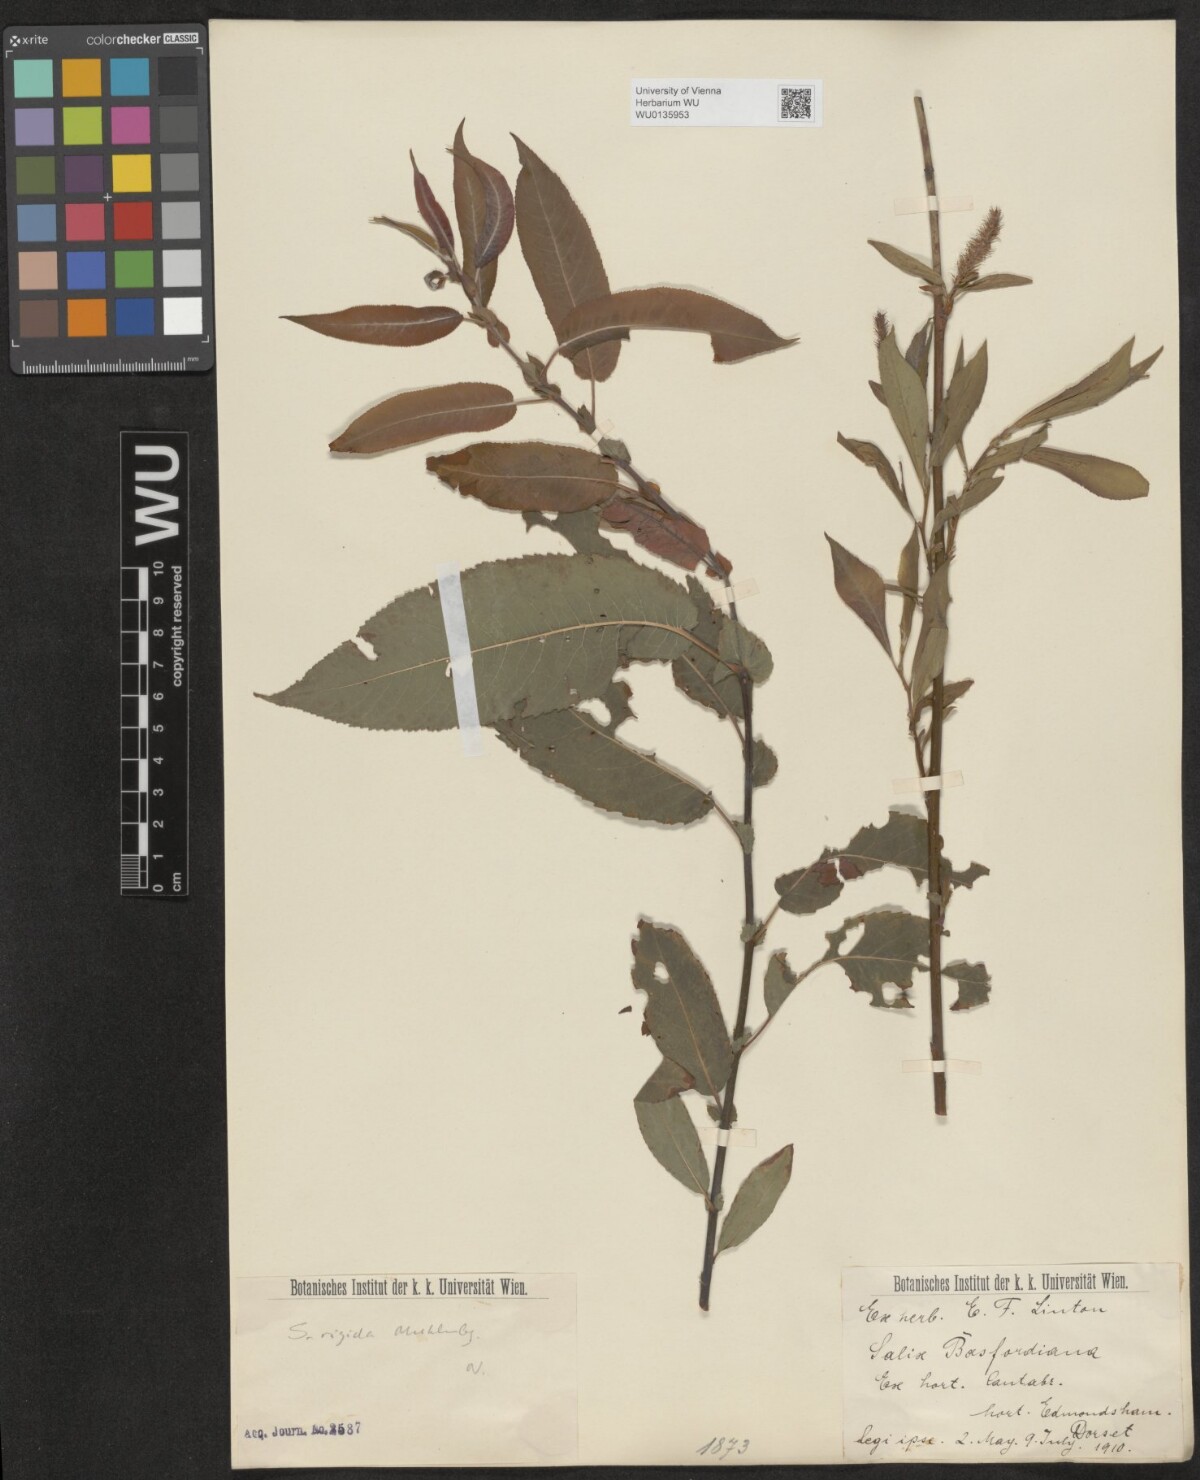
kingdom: Plantae
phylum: Tracheophyta
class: Magnoliopsida
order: Malpighiales
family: Salicaceae
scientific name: Salicaceae
